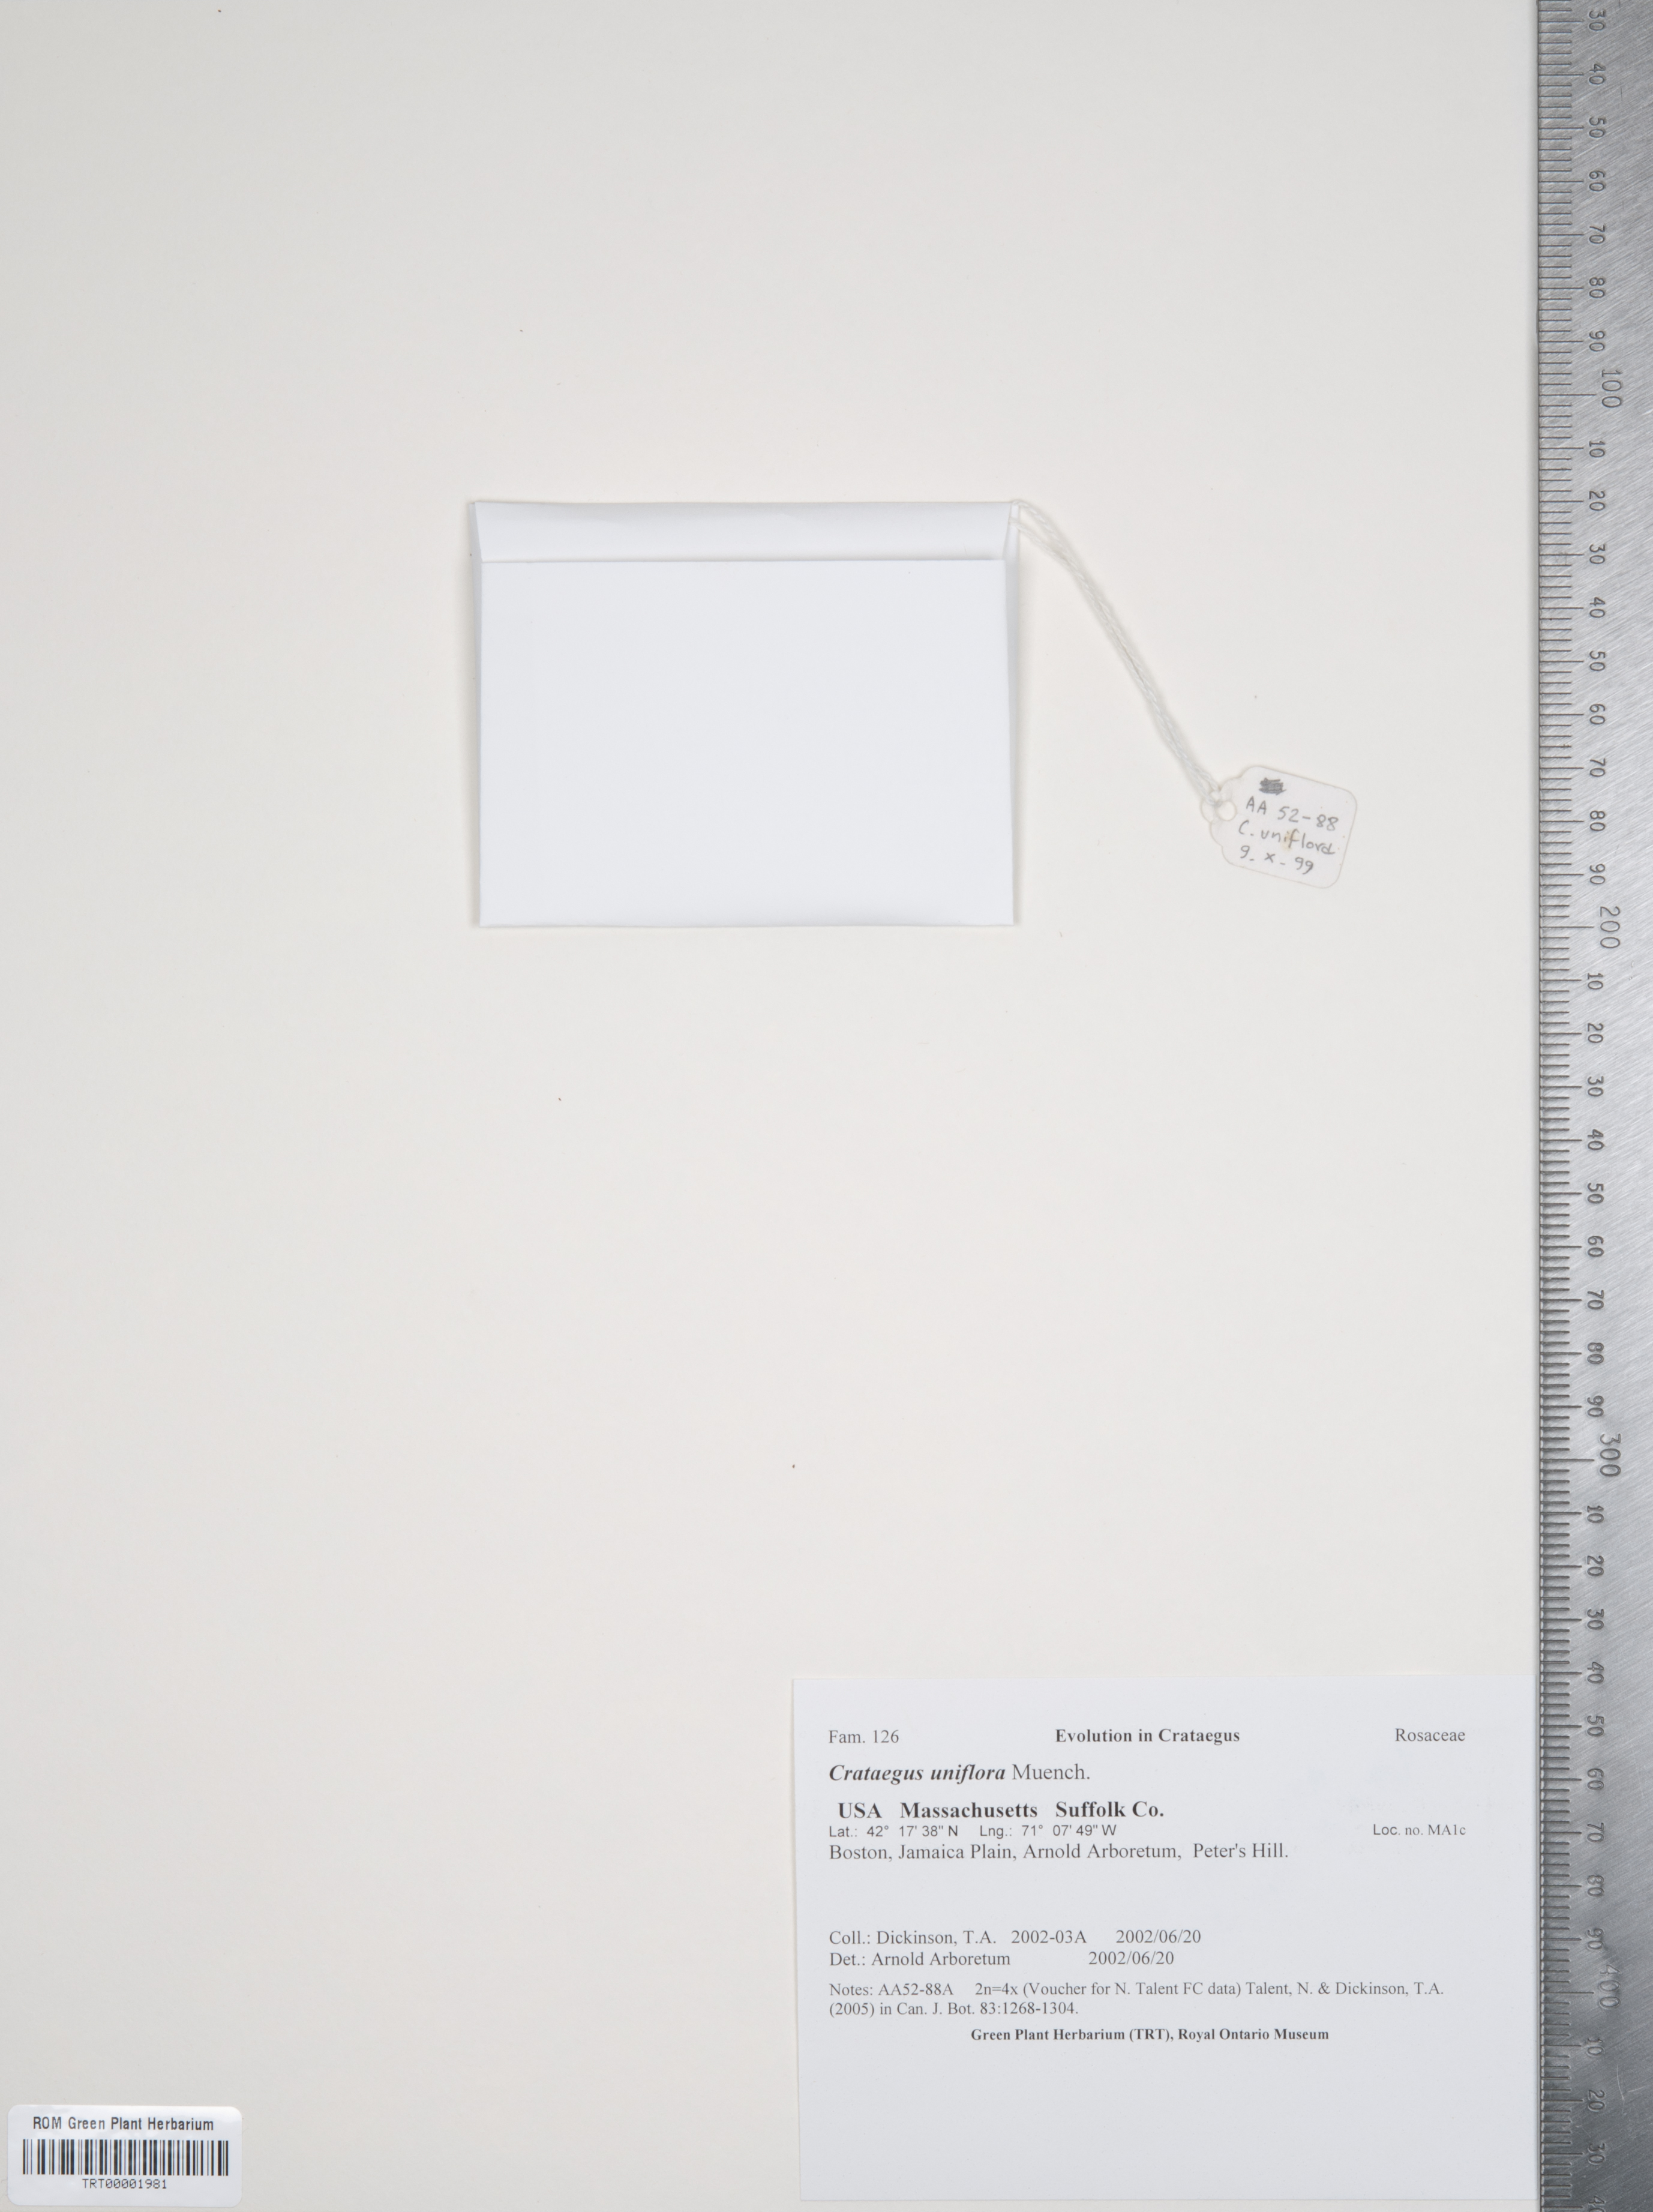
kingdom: Plantae
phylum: Tracheophyta
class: Magnoliopsida
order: Rosales
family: Rosaceae
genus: Crataegus
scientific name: Crataegus uniflora
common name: One-flower hawthorn
